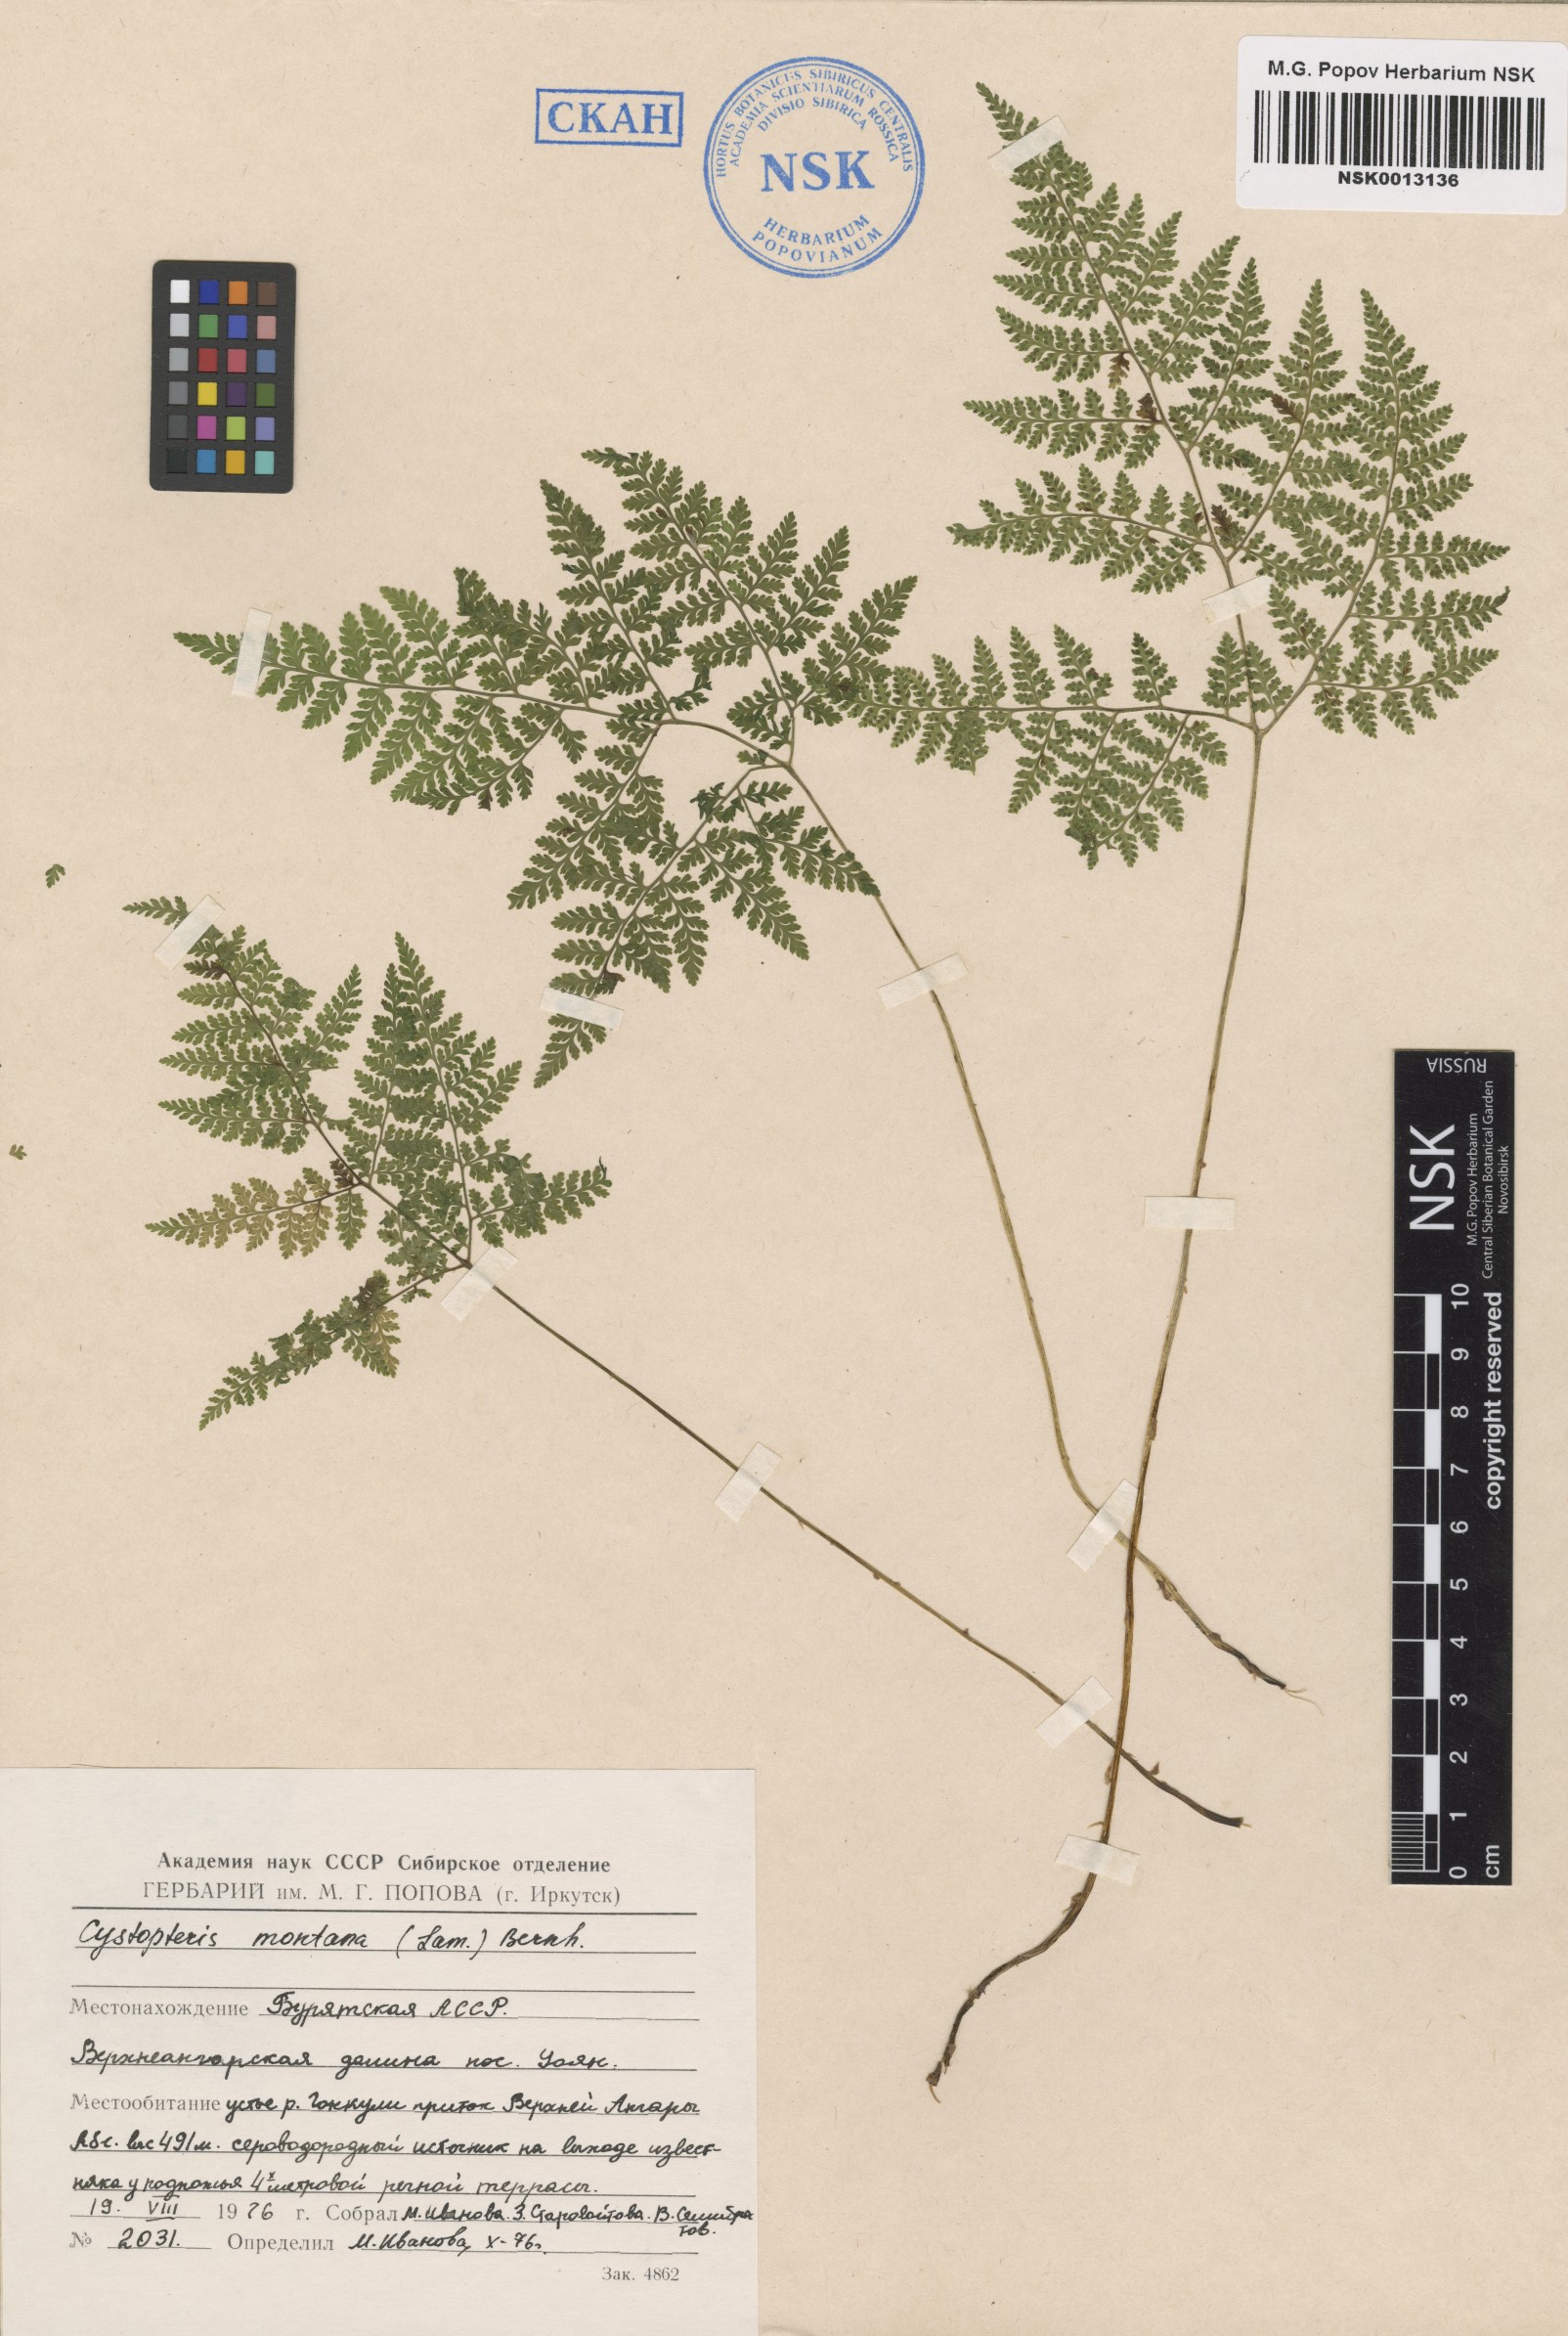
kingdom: Plantae
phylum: Tracheophyta
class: Polypodiopsida
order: Polypodiales
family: Cystopteridaceae
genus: Cystopteris
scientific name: Cystopteris montana
